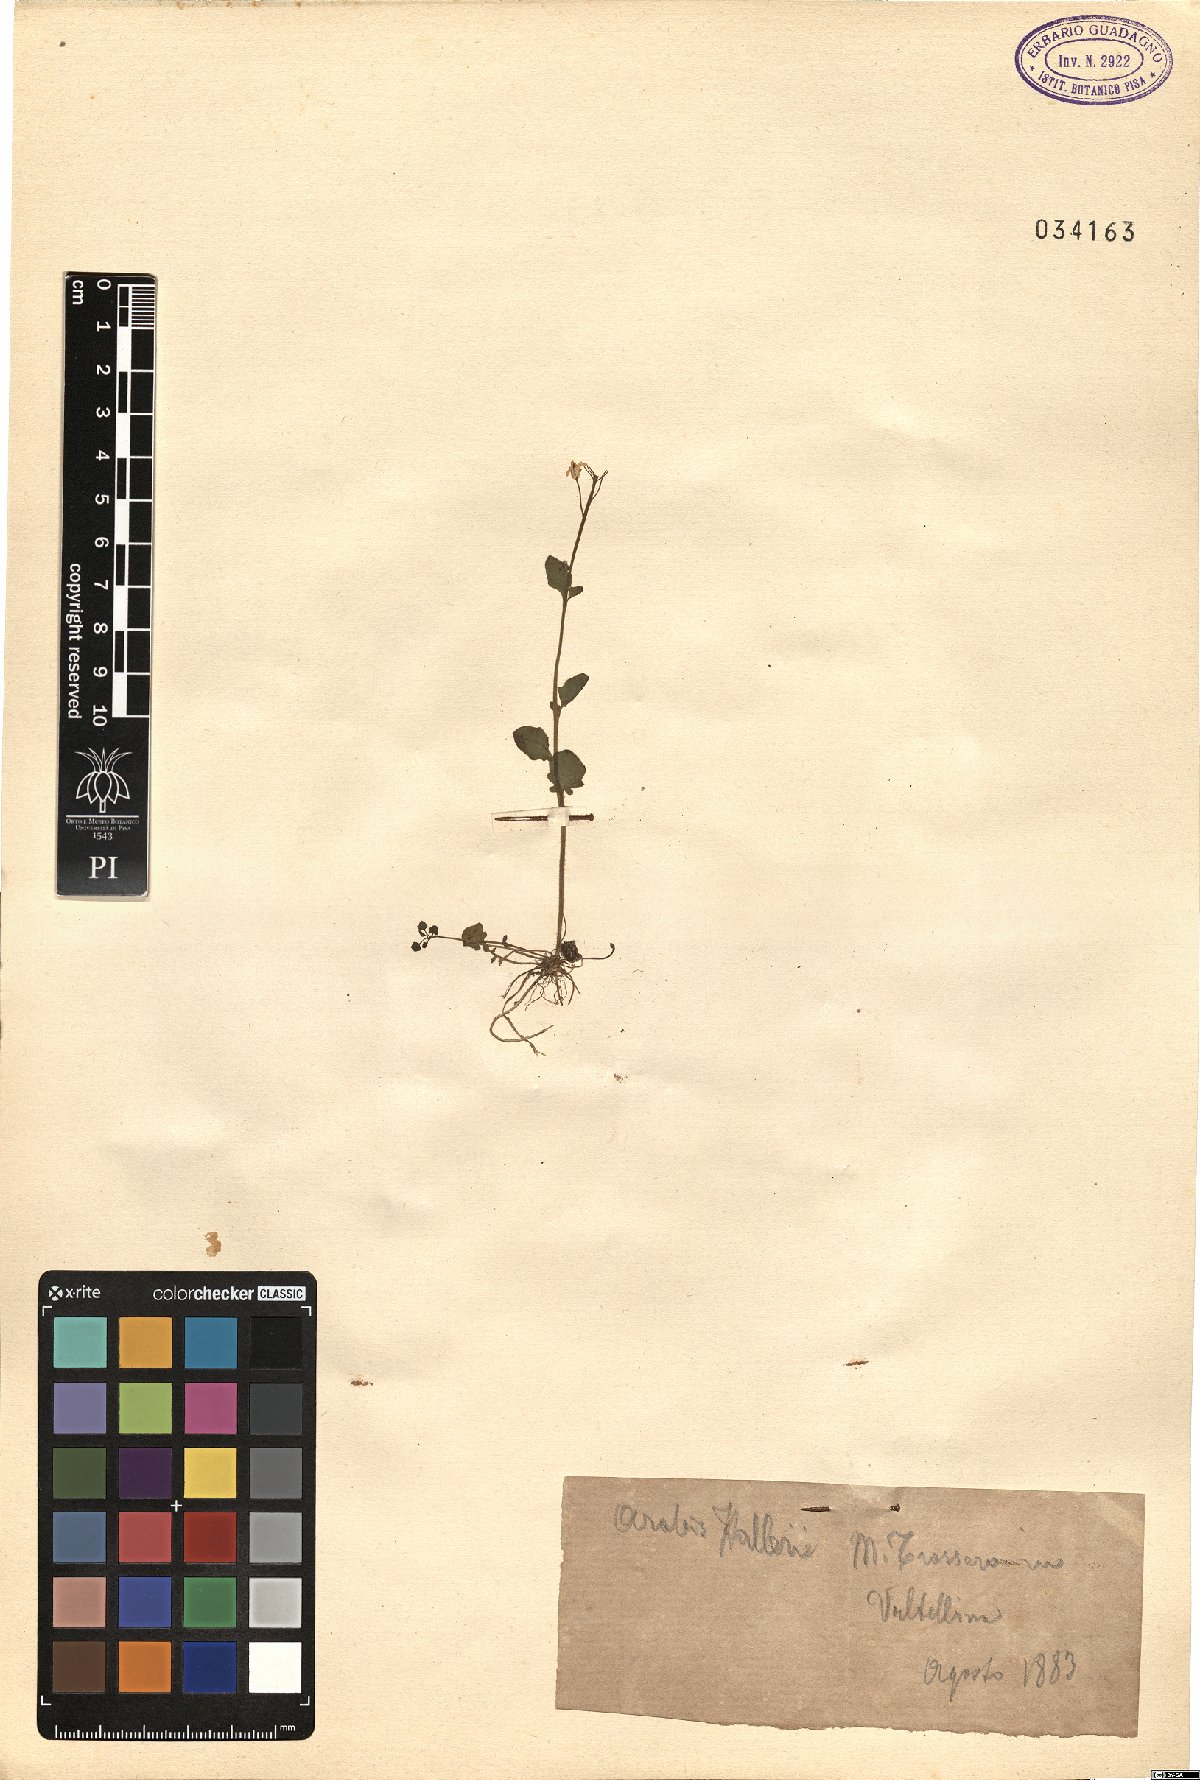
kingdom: Plantae
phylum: Tracheophyta
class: Magnoliopsida
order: Brassicales
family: Brassicaceae
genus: Arabidopsis
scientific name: Arabidopsis halleri
